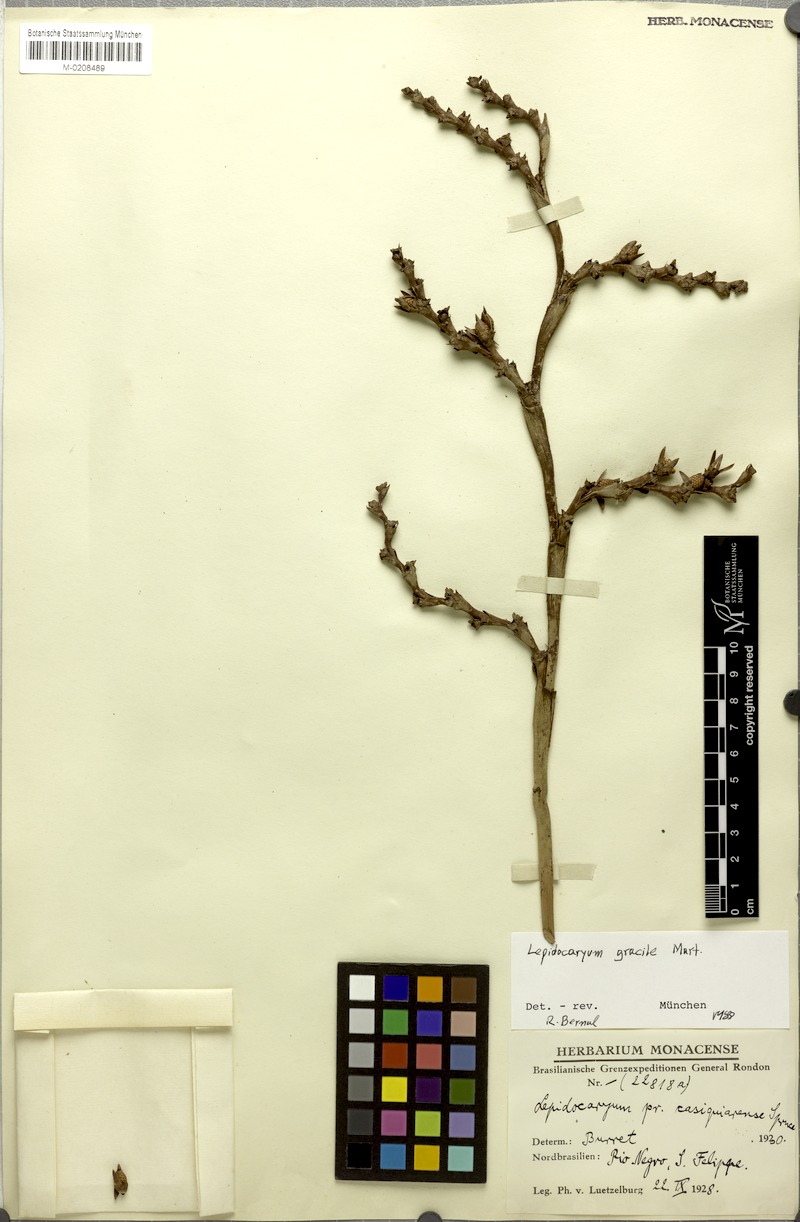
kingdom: Plantae
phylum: Tracheophyta
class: Liliopsida
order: Arecales
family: Arecaceae
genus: Lepidocaryum
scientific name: Lepidocaryum tenue
